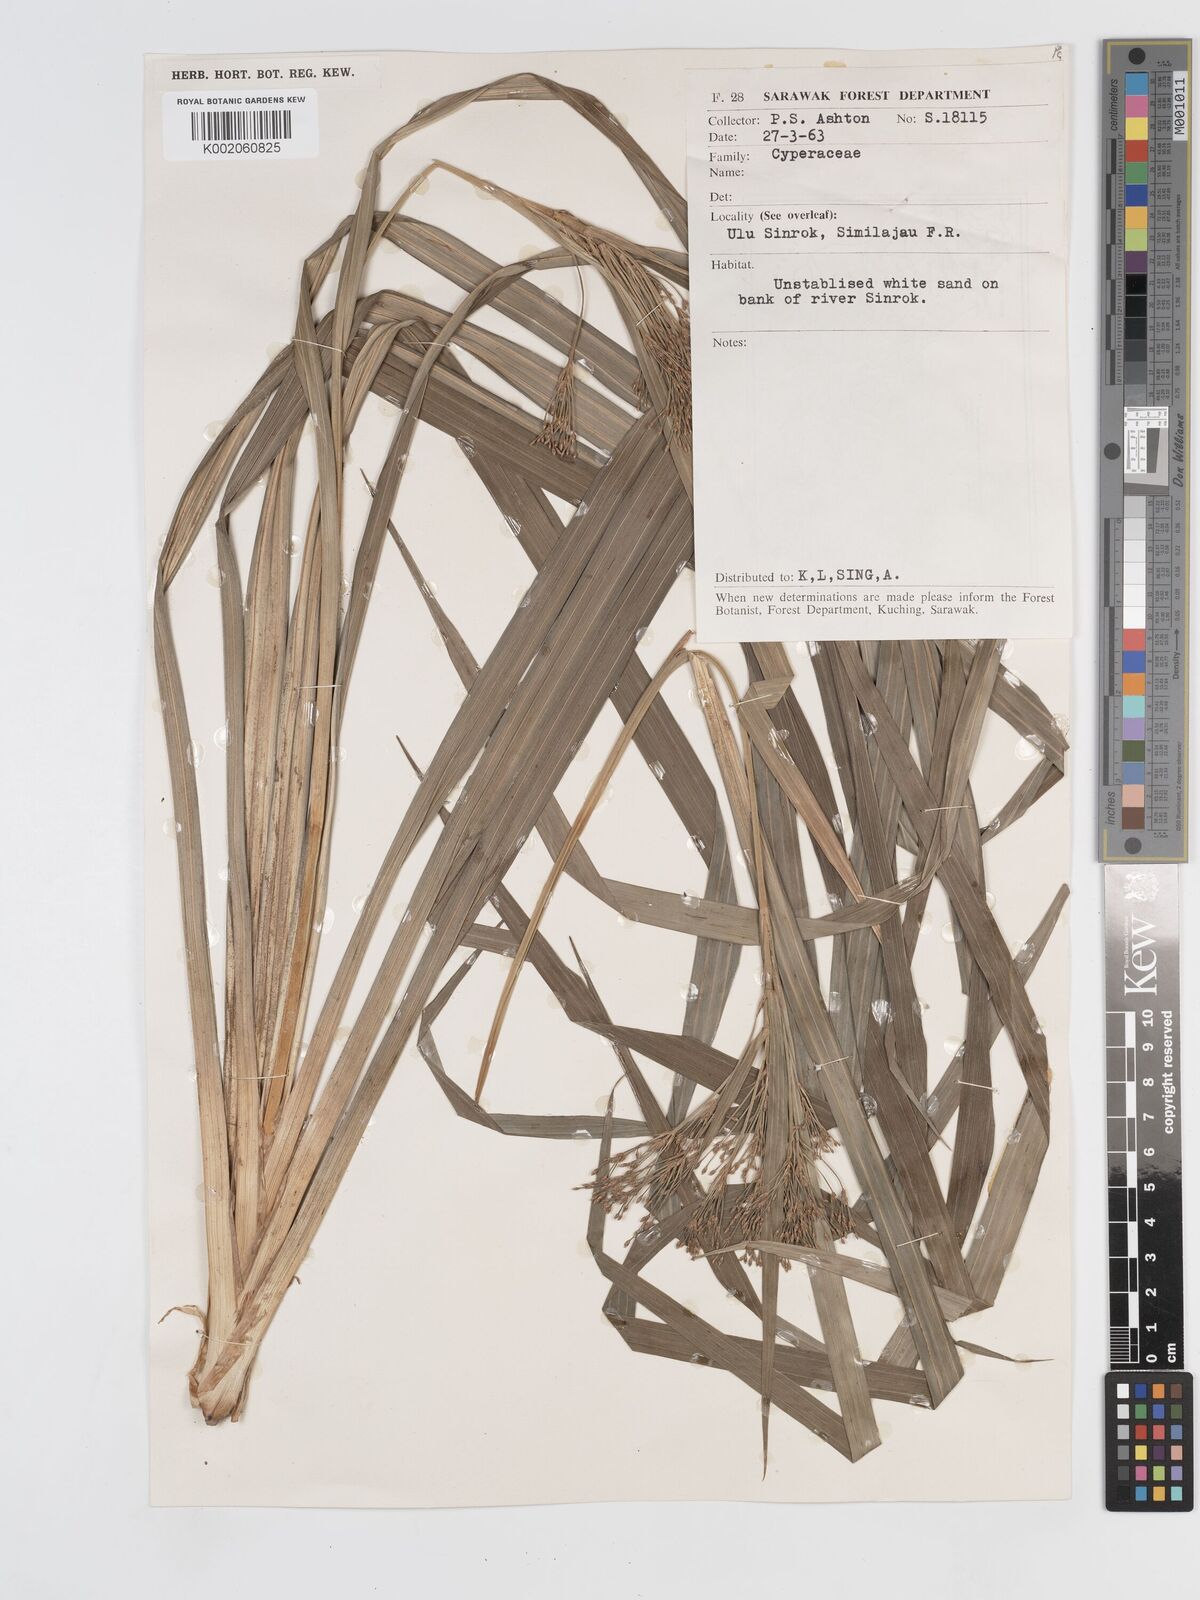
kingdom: Plantae
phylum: Tracheophyta
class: Liliopsida
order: Poales
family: Cyperaceae
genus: Hypolytrum
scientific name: Hypolytrum
